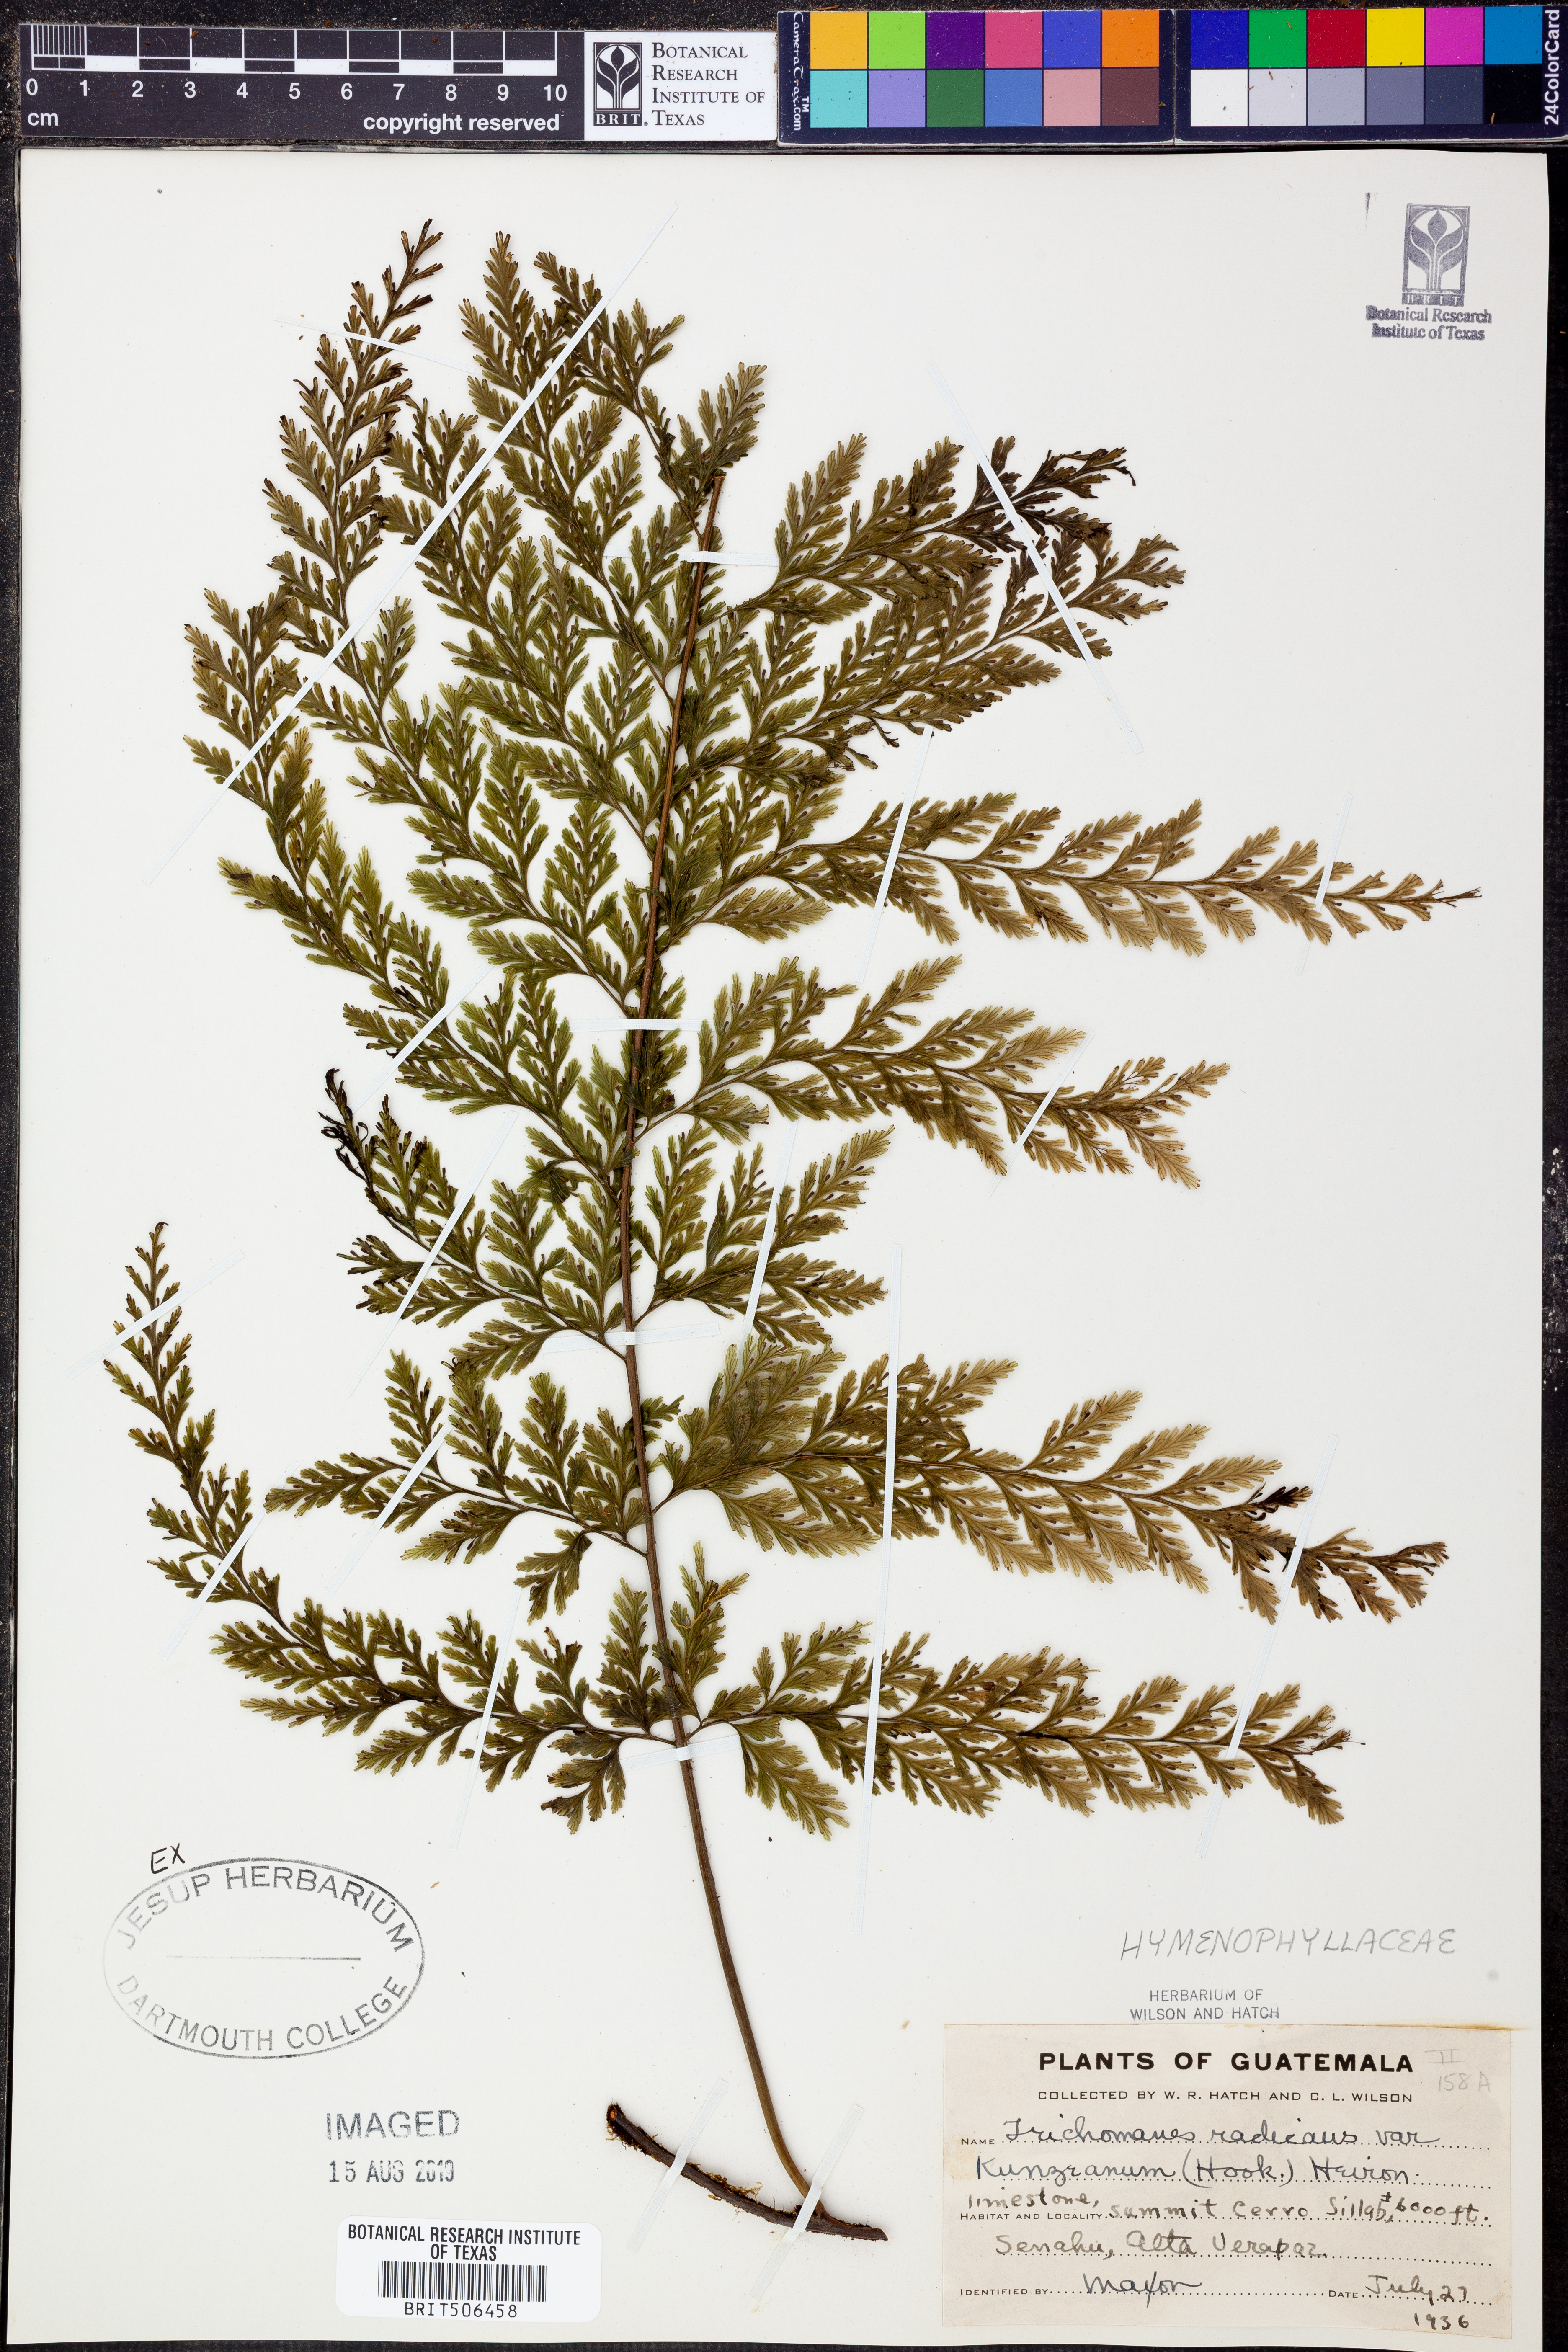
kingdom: Plantae
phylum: Tracheophyta
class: Polypodiopsida
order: Hymenophyllales
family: Hymenophyllaceae
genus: Vandenboschia
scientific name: Vandenboschia radicans
